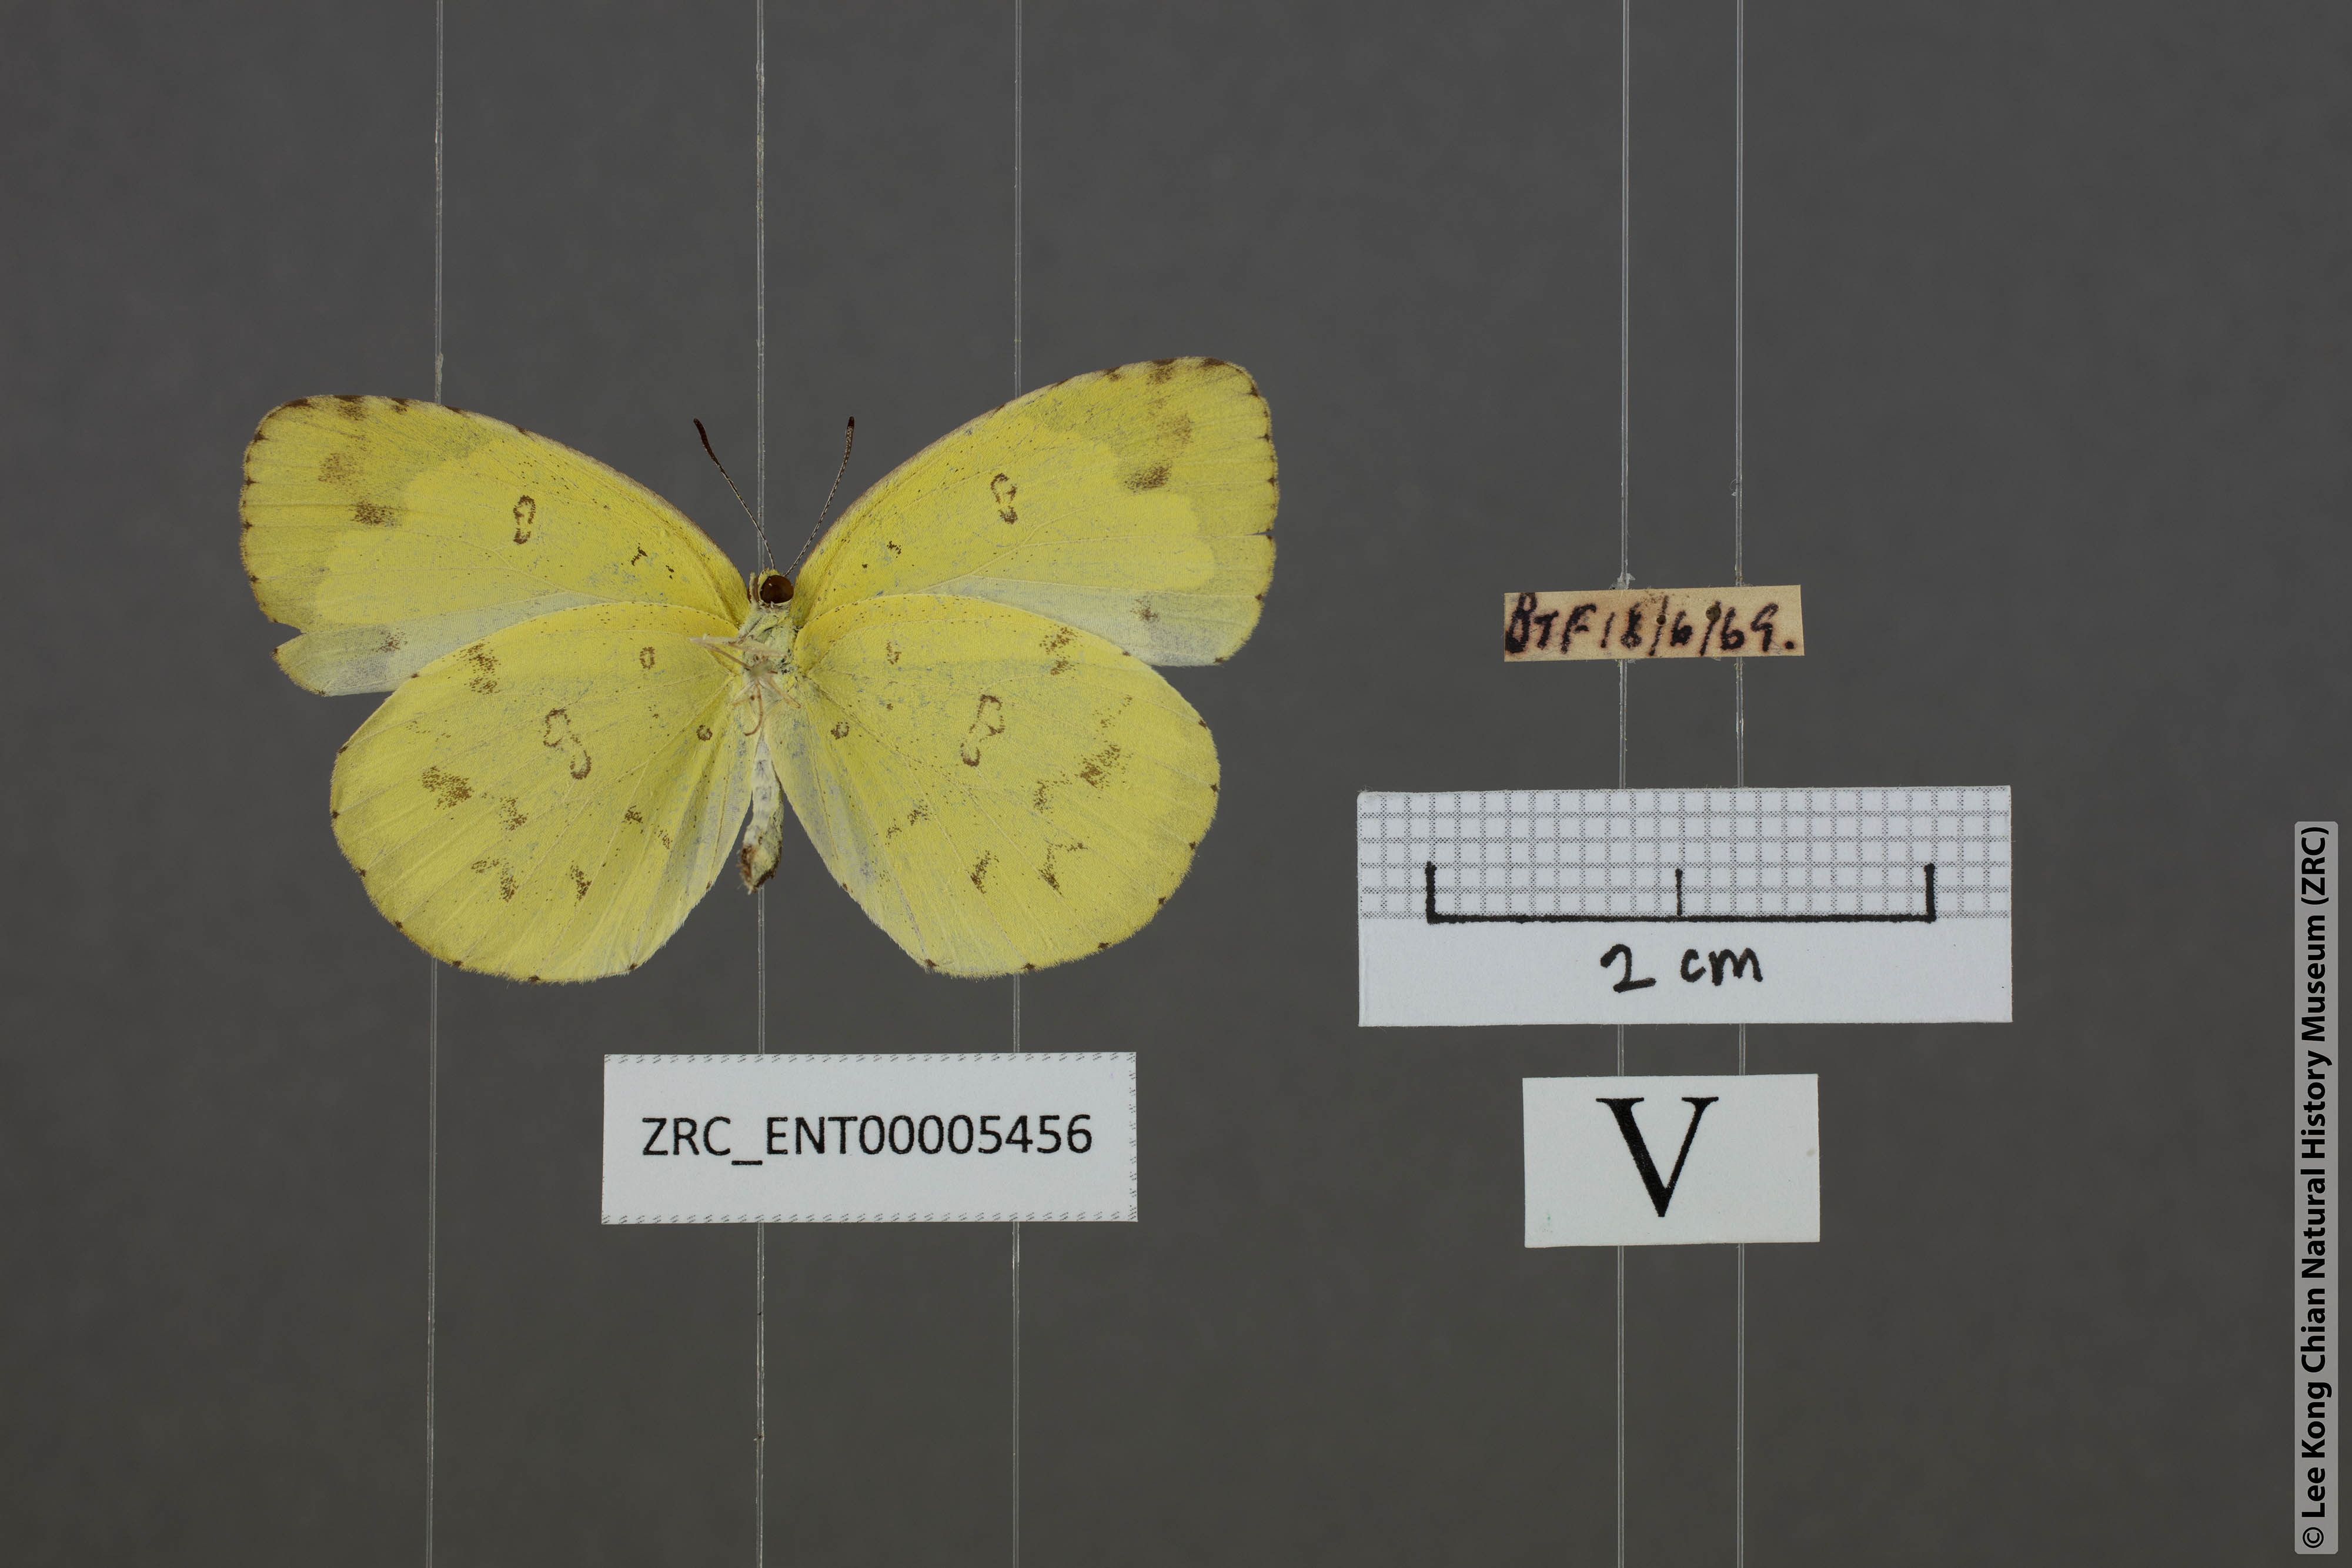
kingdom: Animalia
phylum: Arthropoda
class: Insecta
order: Lepidoptera
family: Pieridae
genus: Eurema
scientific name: Eurema lacteola
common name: Scarce grass yellow
